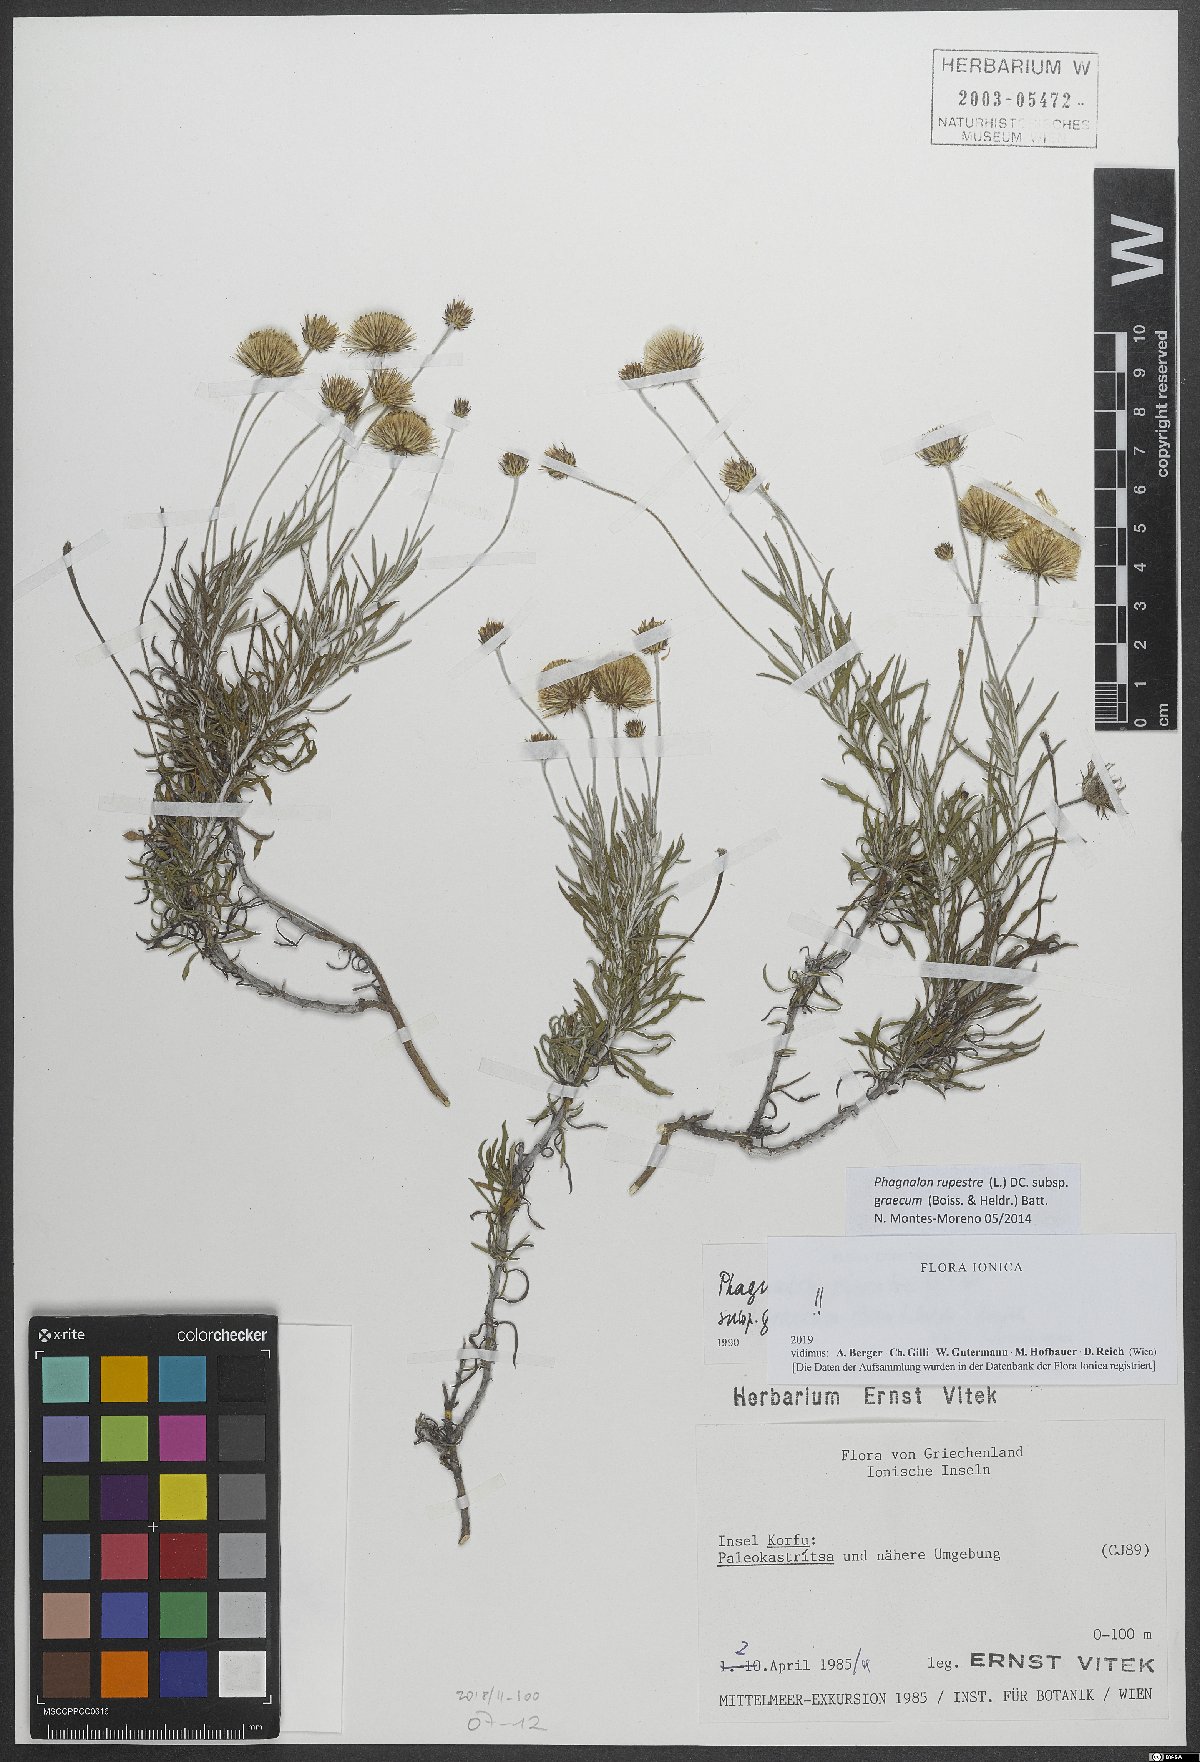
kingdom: Plantae
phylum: Tracheophyta
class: Magnoliopsida
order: Asterales
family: Asteraceae
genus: Phagnalon
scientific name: Phagnalon graecum
